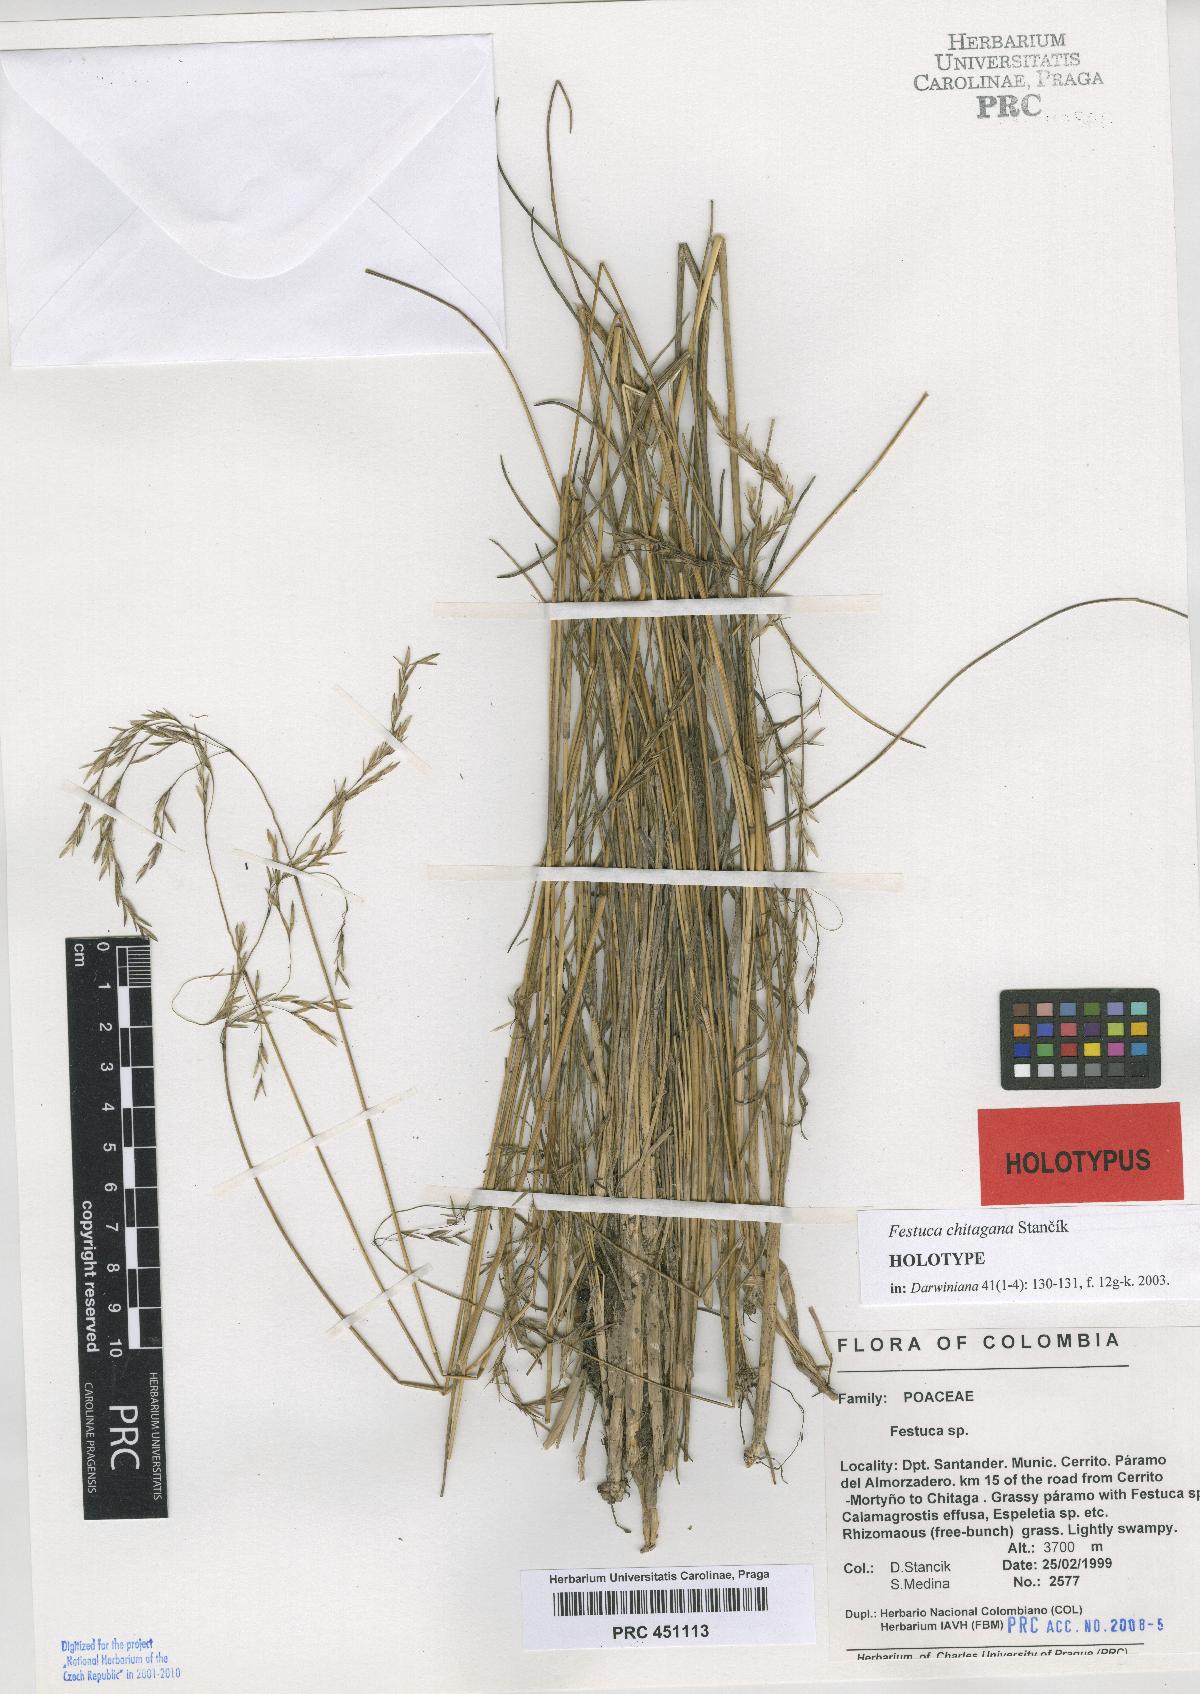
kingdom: Plantae
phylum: Tracheophyta
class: Liliopsida
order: Poales
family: Poaceae
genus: Festuca
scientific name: Festuca chitagana
